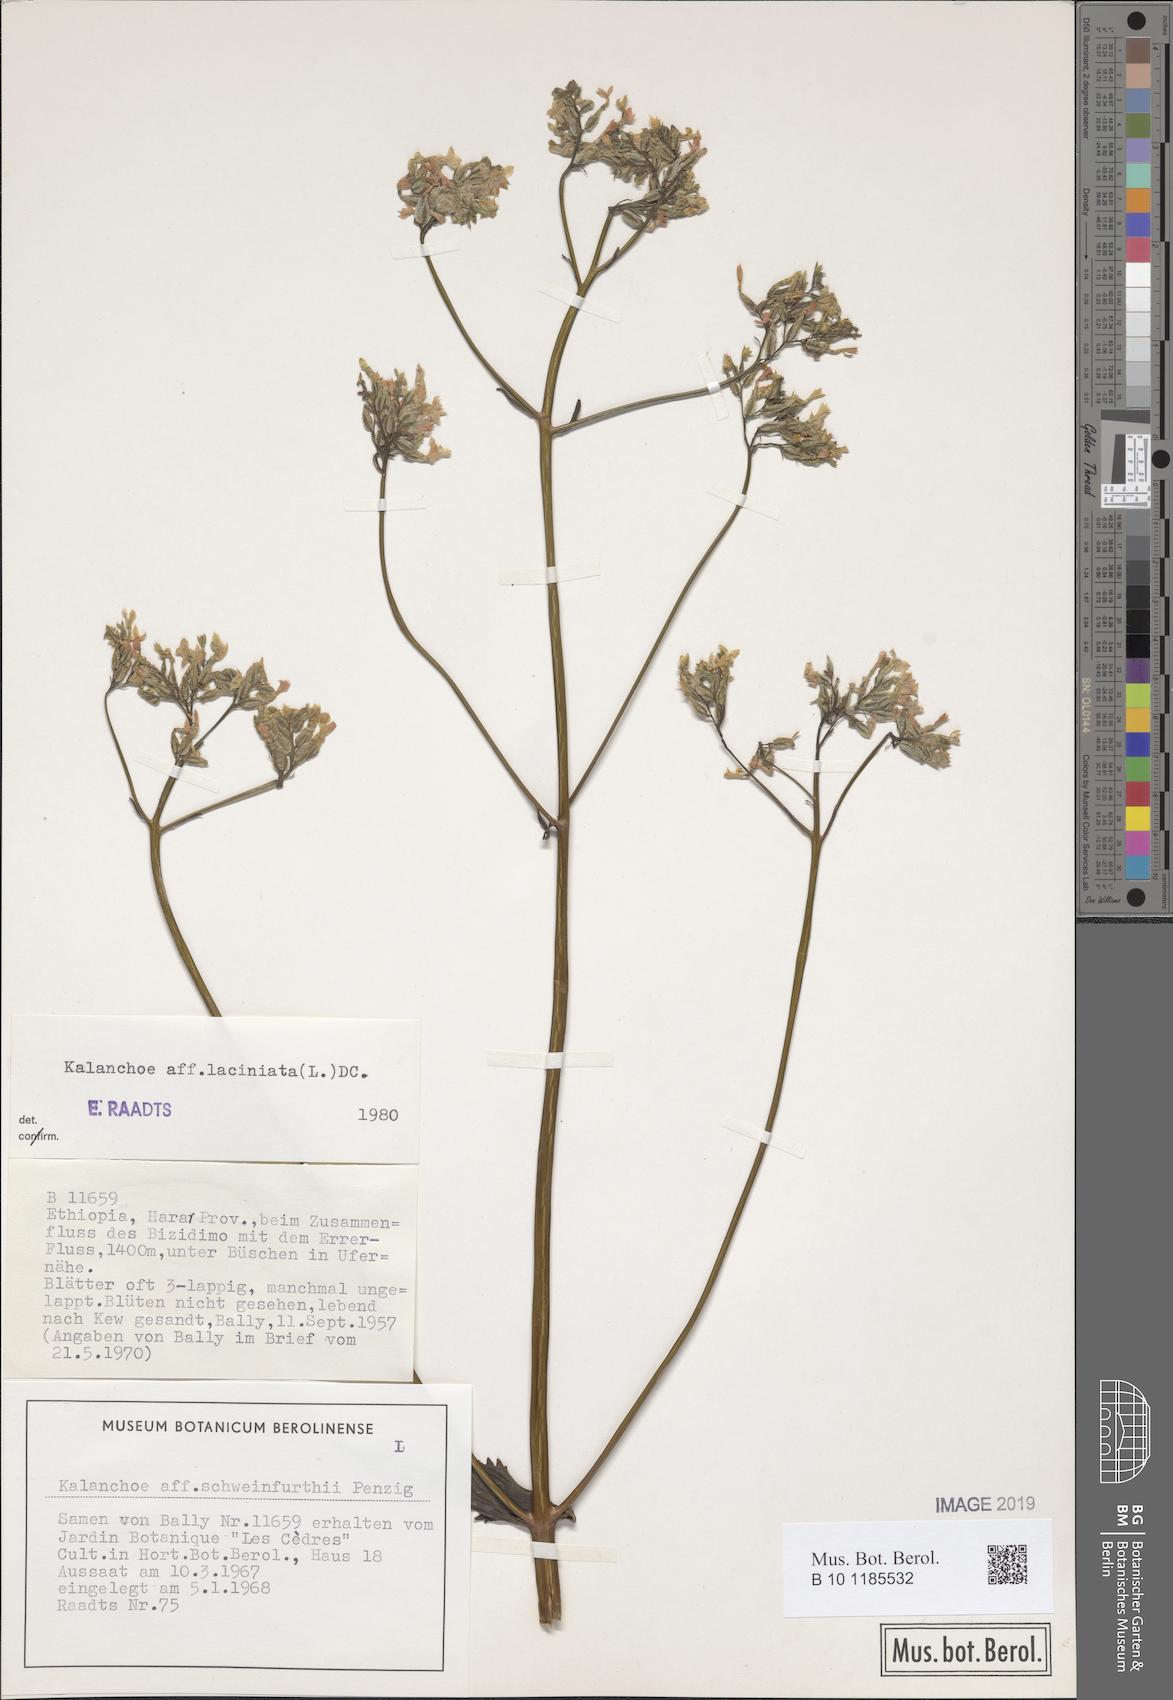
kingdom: Plantae
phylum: Tracheophyta
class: Magnoliopsida
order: Saxifragales
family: Crassulaceae
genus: Kalanchoe
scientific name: Kalanchoe laciniata
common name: Christmastree plant
